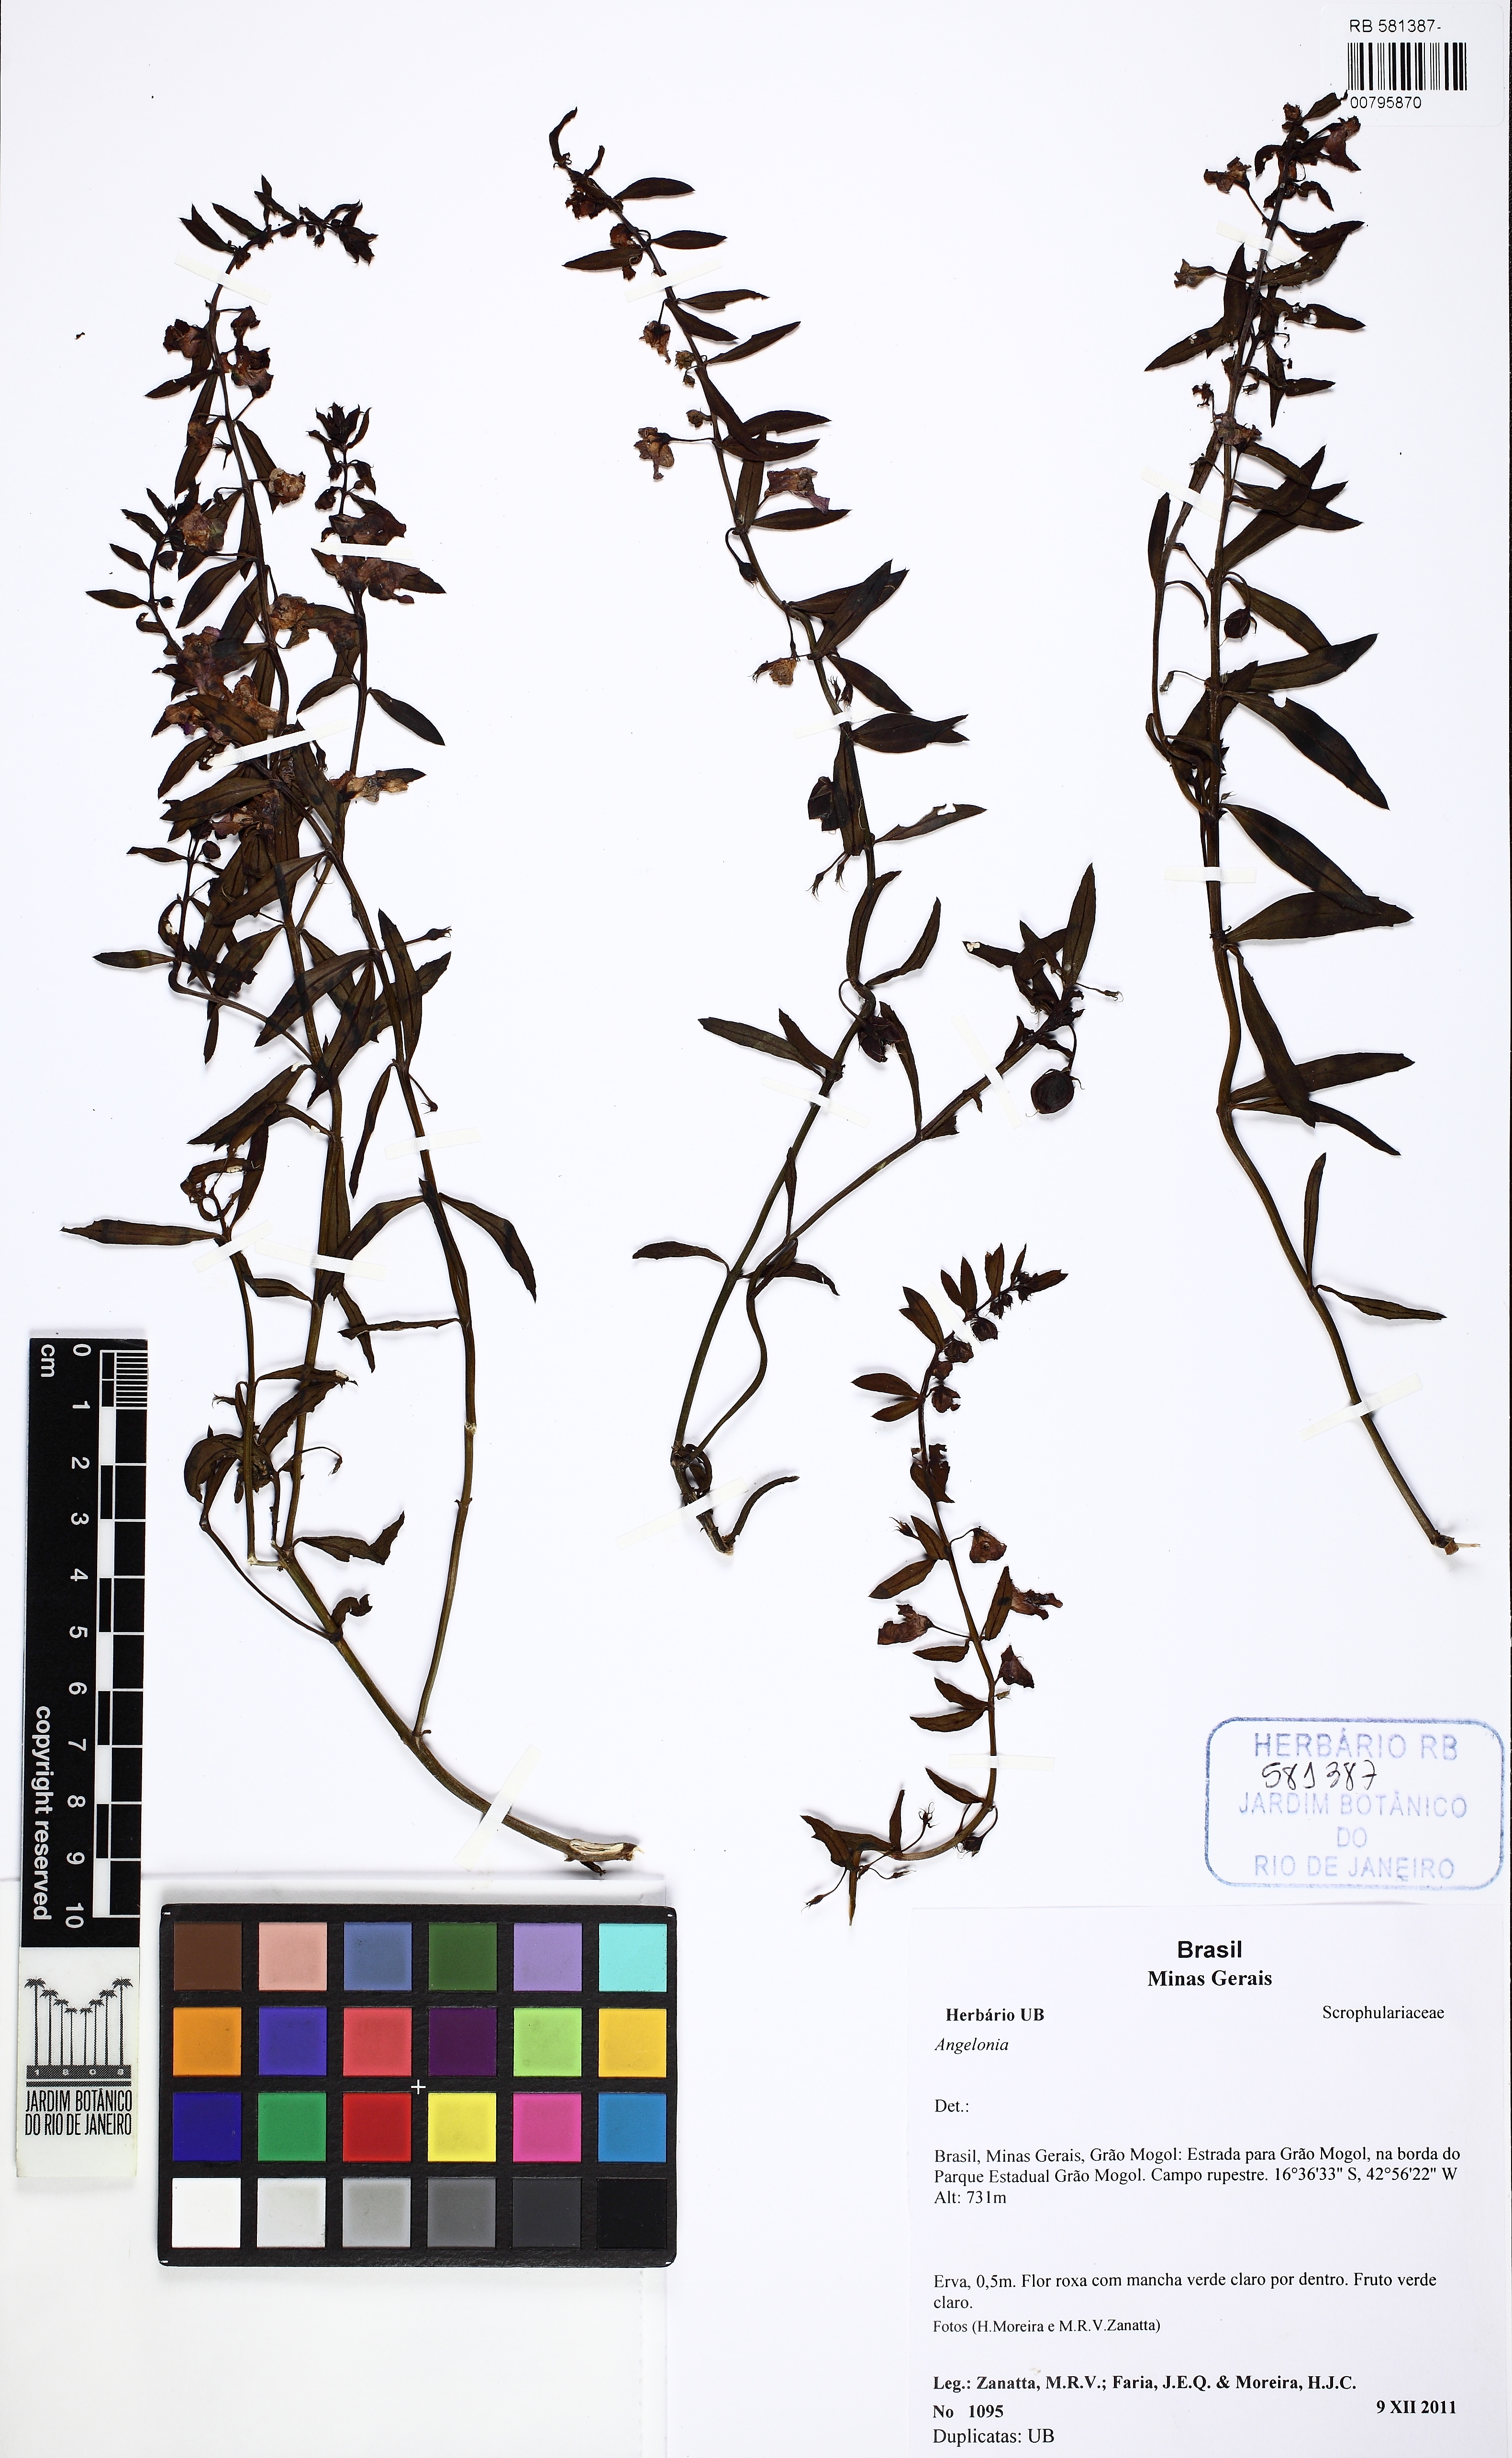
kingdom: Plantae
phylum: Tracheophyta
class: Magnoliopsida
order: Lamiales
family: Plantaginaceae
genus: Angelonia
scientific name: Angelonia goyazensis
